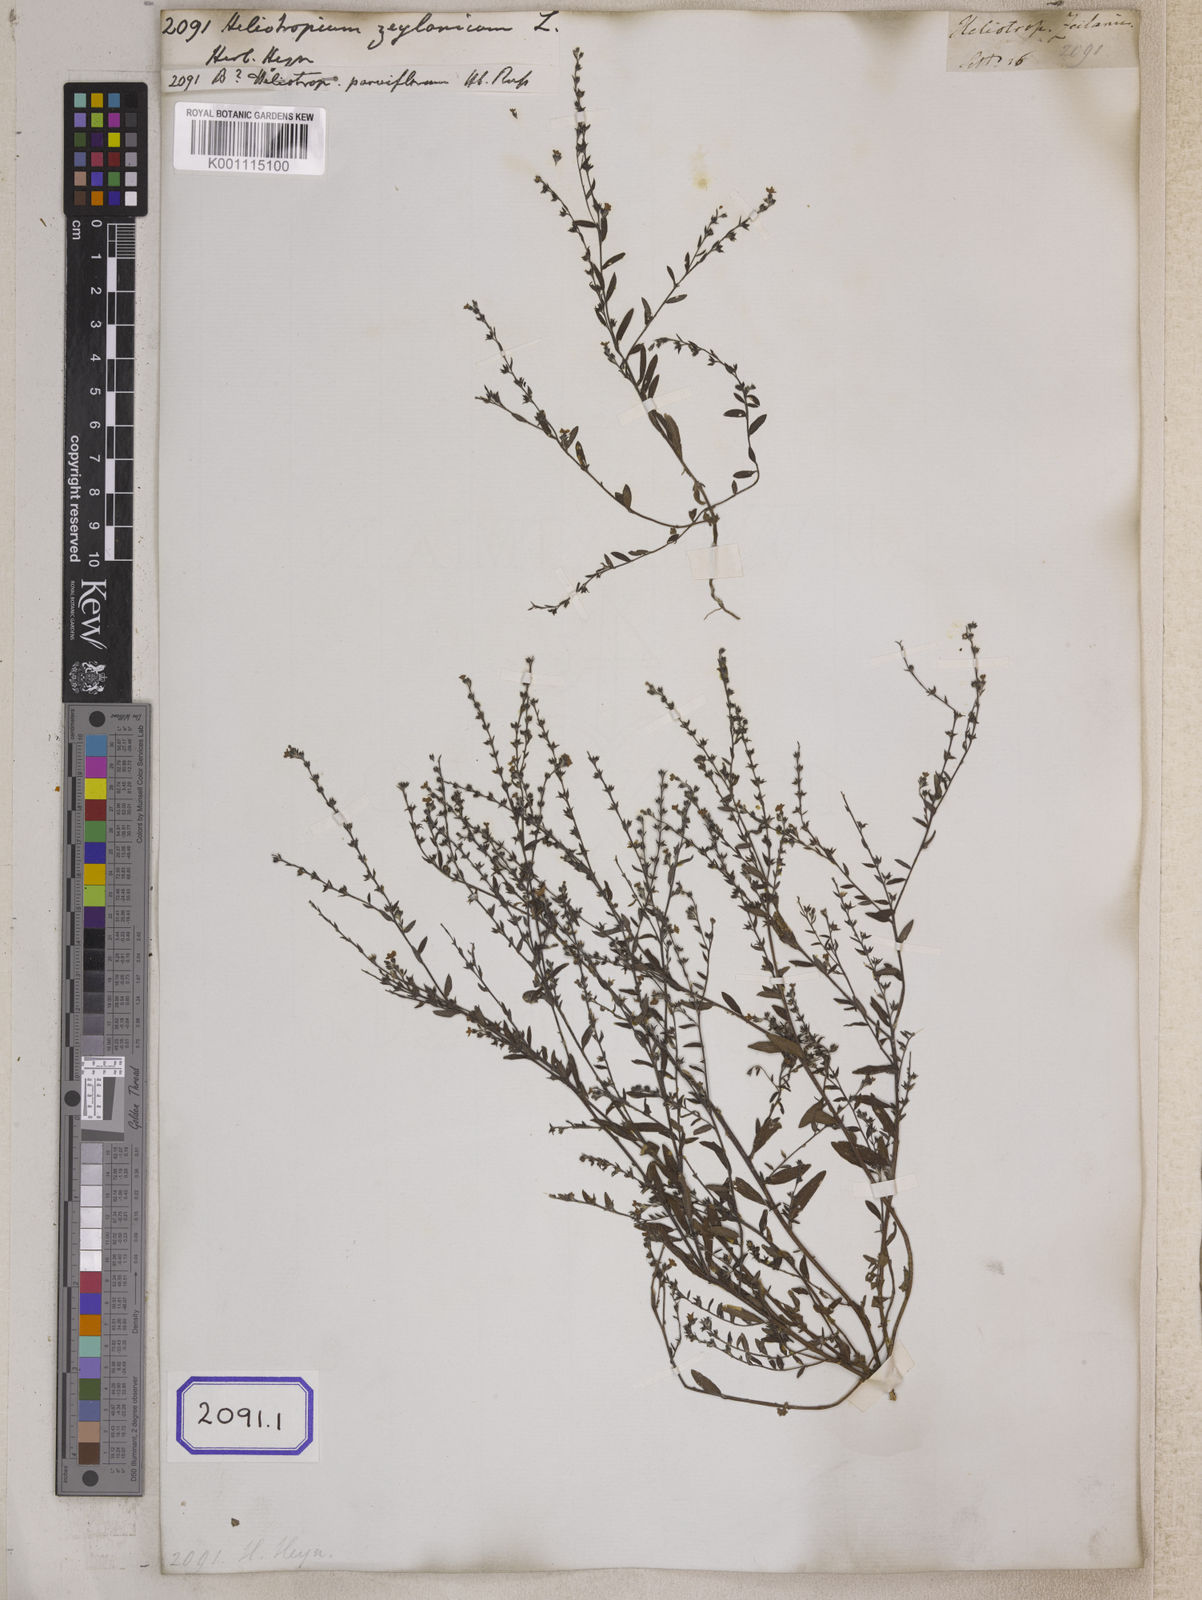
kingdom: Plantae
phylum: Tracheophyta
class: Magnoliopsida
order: Boraginales
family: Heliotropiaceae
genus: Heliotropium
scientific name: Heliotropium
